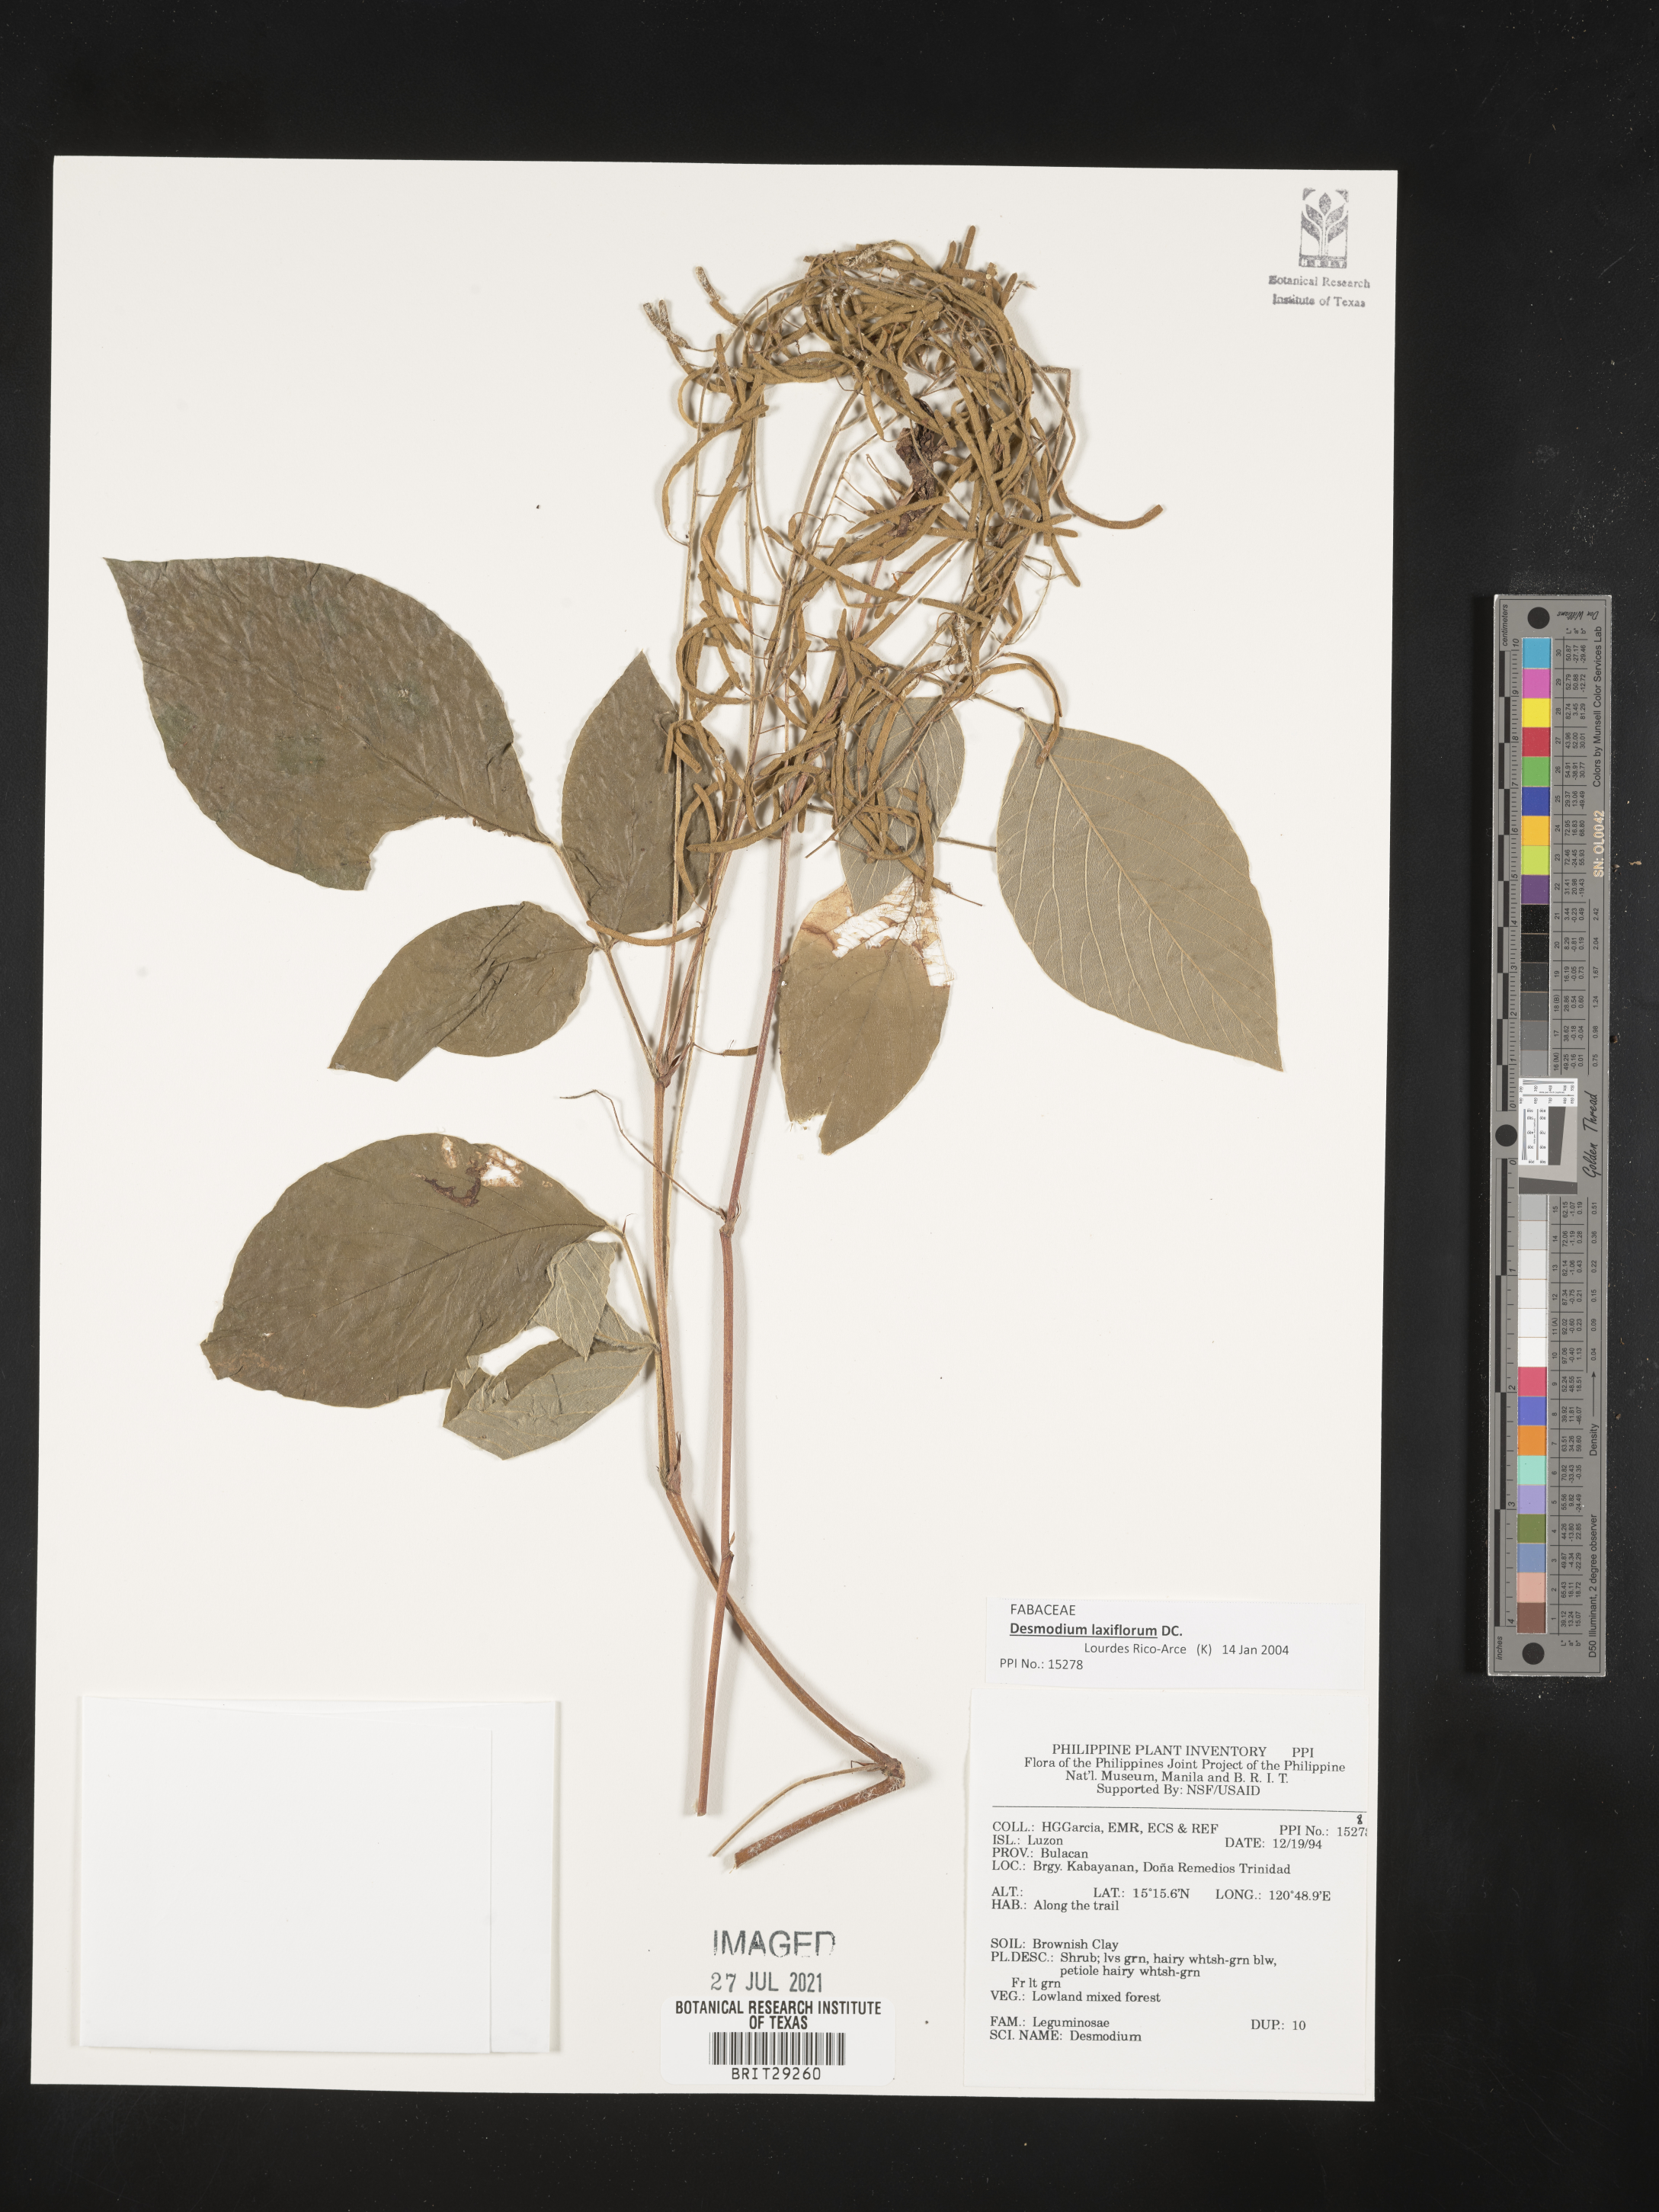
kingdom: Plantae
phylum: Tracheophyta
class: Magnoliopsida
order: Fabales
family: Fabaceae
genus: Sohmaea
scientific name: Sohmaea laxiflora
